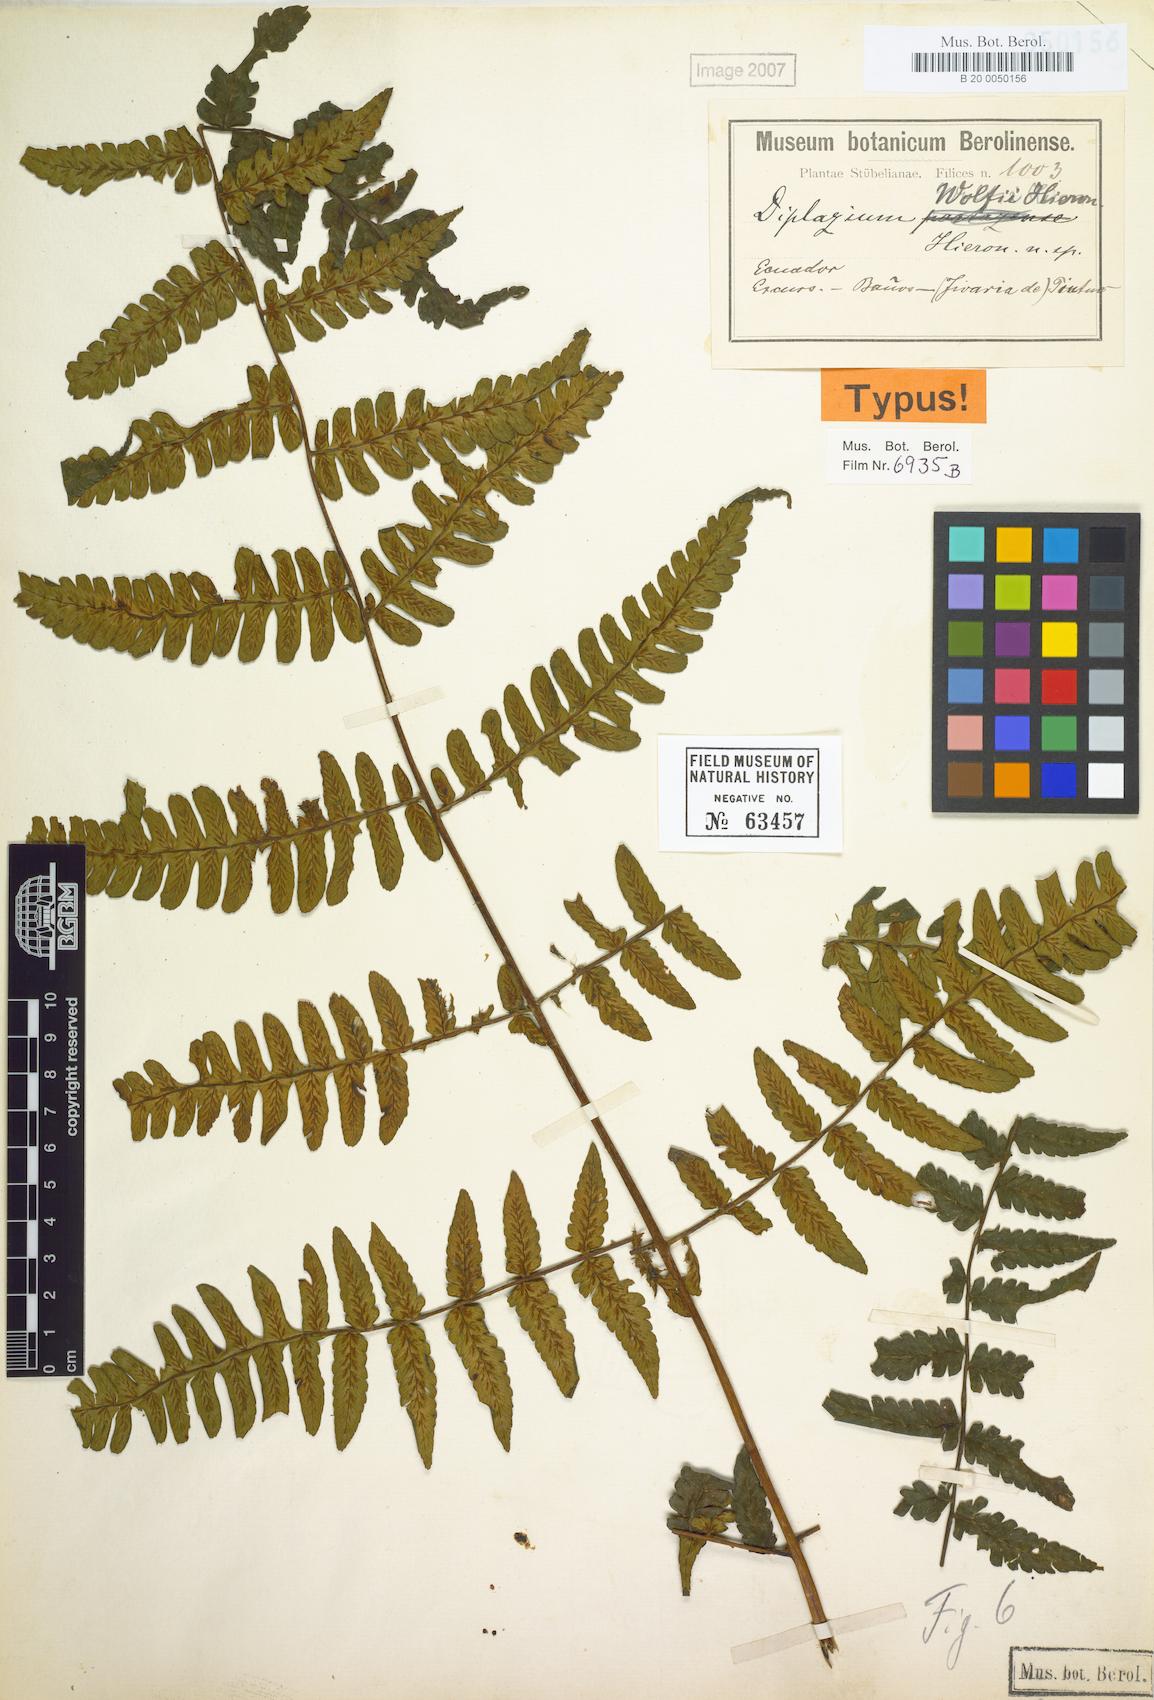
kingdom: Plantae
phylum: Tracheophyta
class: Polypodiopsida
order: Polypodiales
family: Athyriaceae
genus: Diplazium
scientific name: Diplazium wolfii
